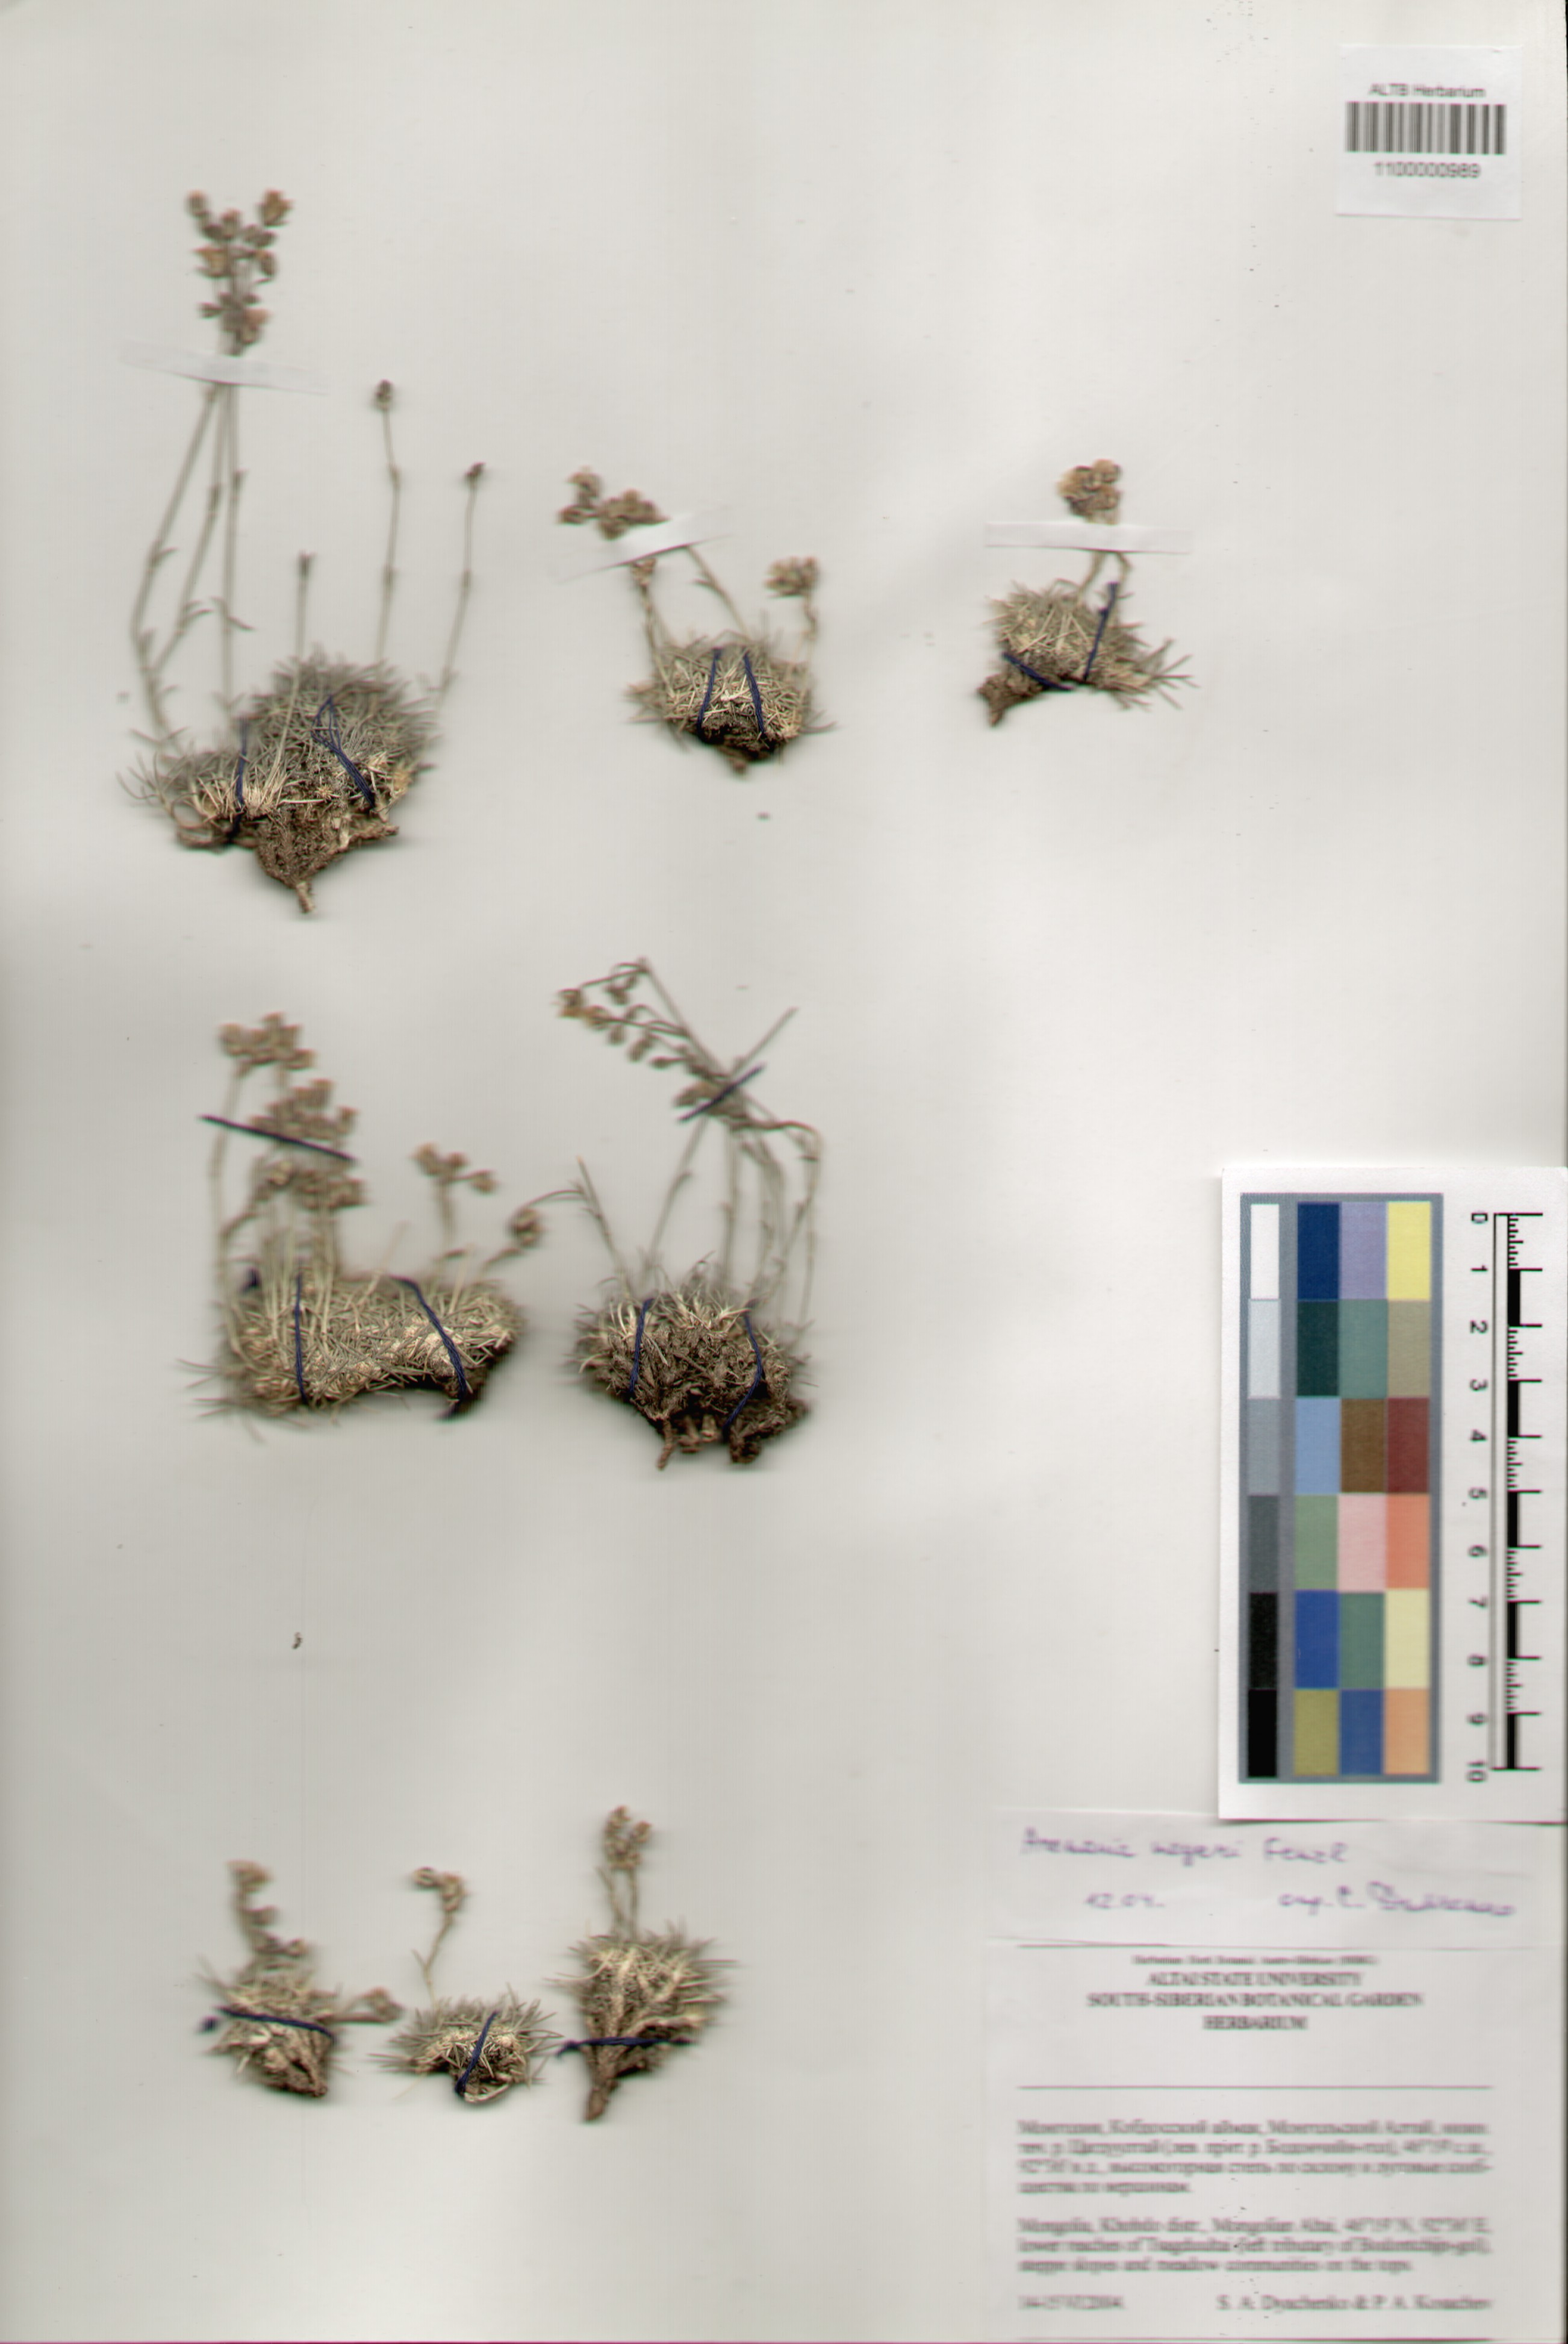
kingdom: Plantae
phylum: Tracheophyta
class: Magnoliopsida
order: Caryophyllales
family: Caryophyllaceae
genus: Eremogone
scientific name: Eremogone meyeri
